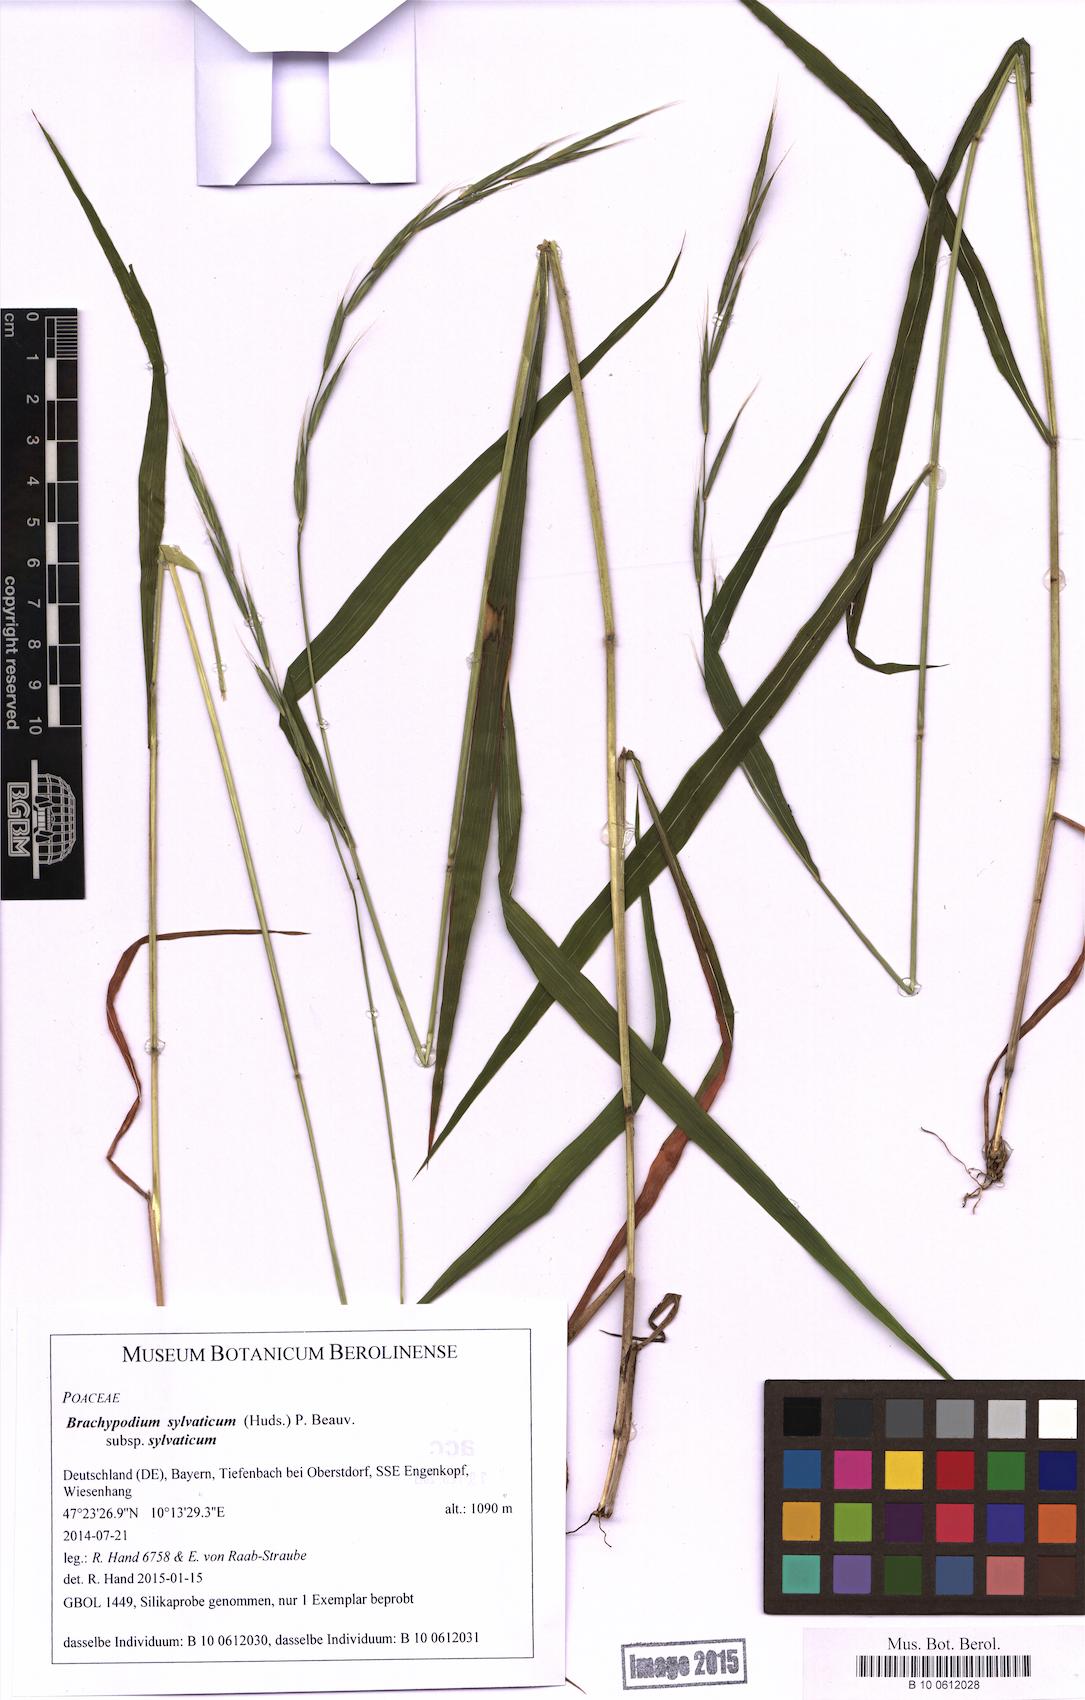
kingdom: Plantae
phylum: Tracheophyta
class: Liliopsida
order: Poales
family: Poaceae
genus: Brachypodium
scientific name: Brachypodium sylvaticum
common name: False-brome
